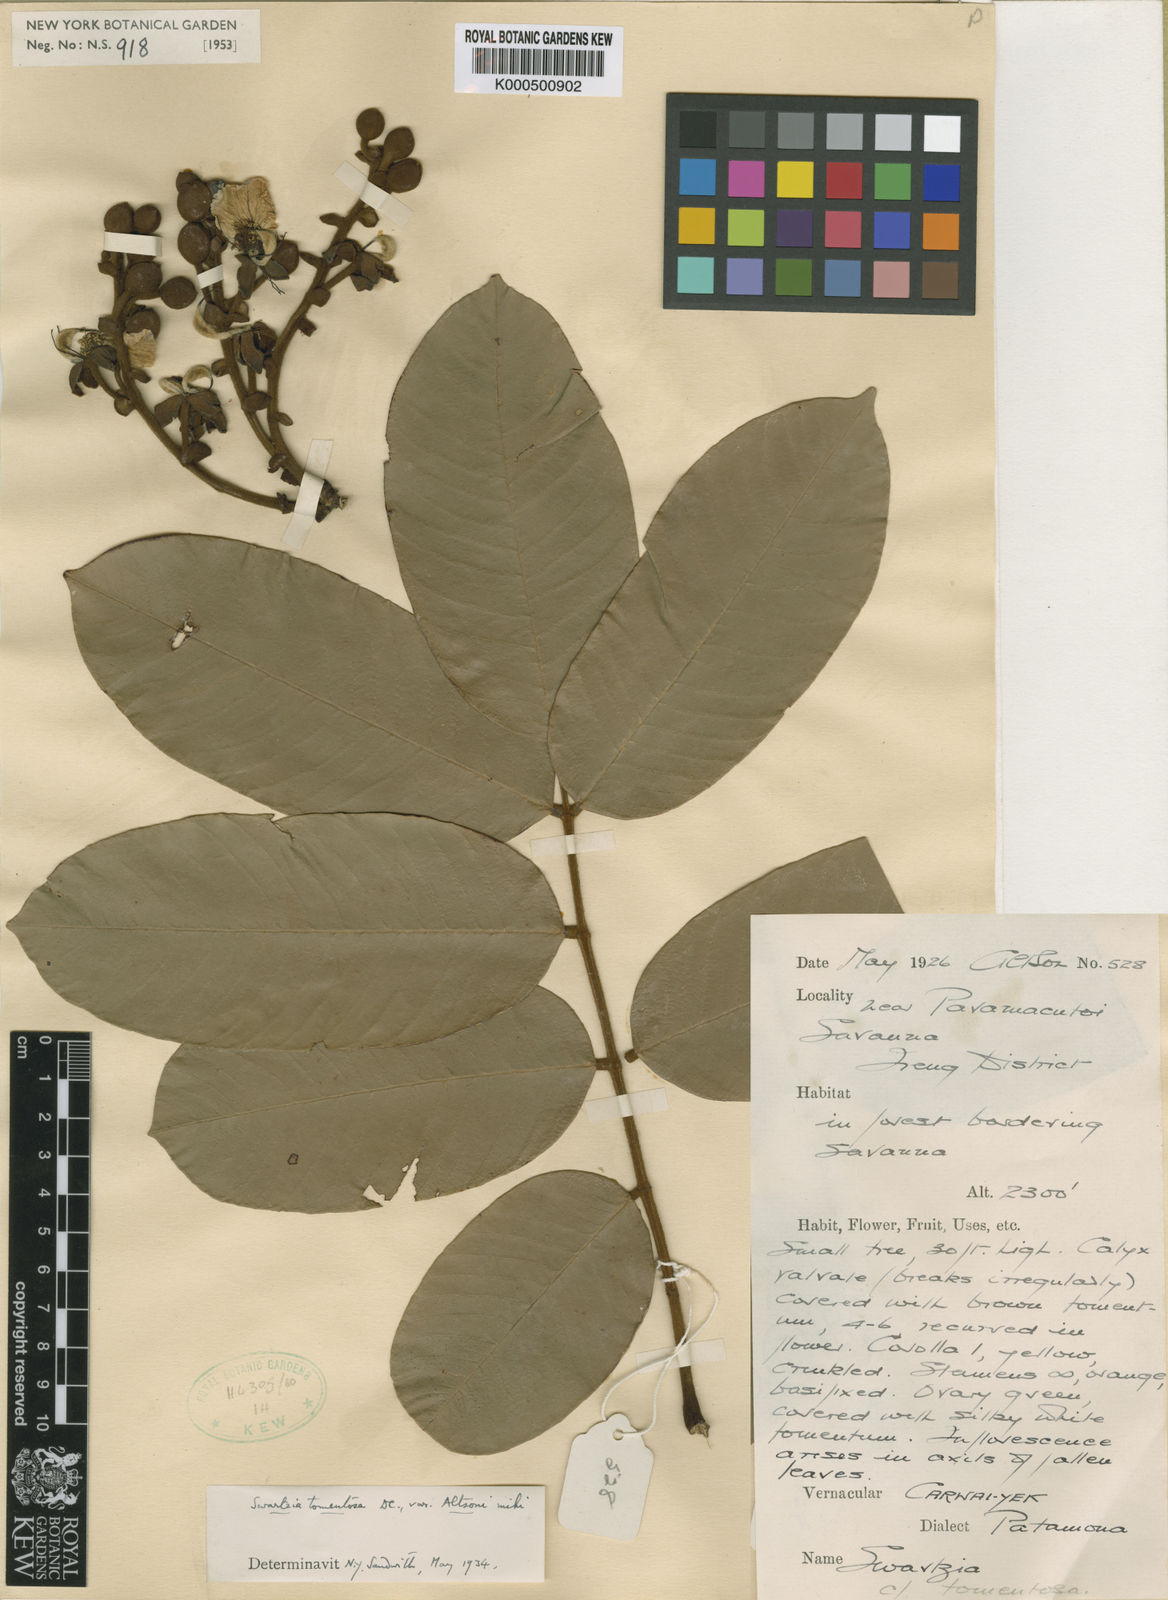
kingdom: Plantae
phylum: Tracheophyta
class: Magnoliopsida
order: Fabales
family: Fabaceae
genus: Swartzia
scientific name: Swartzia panacoco
